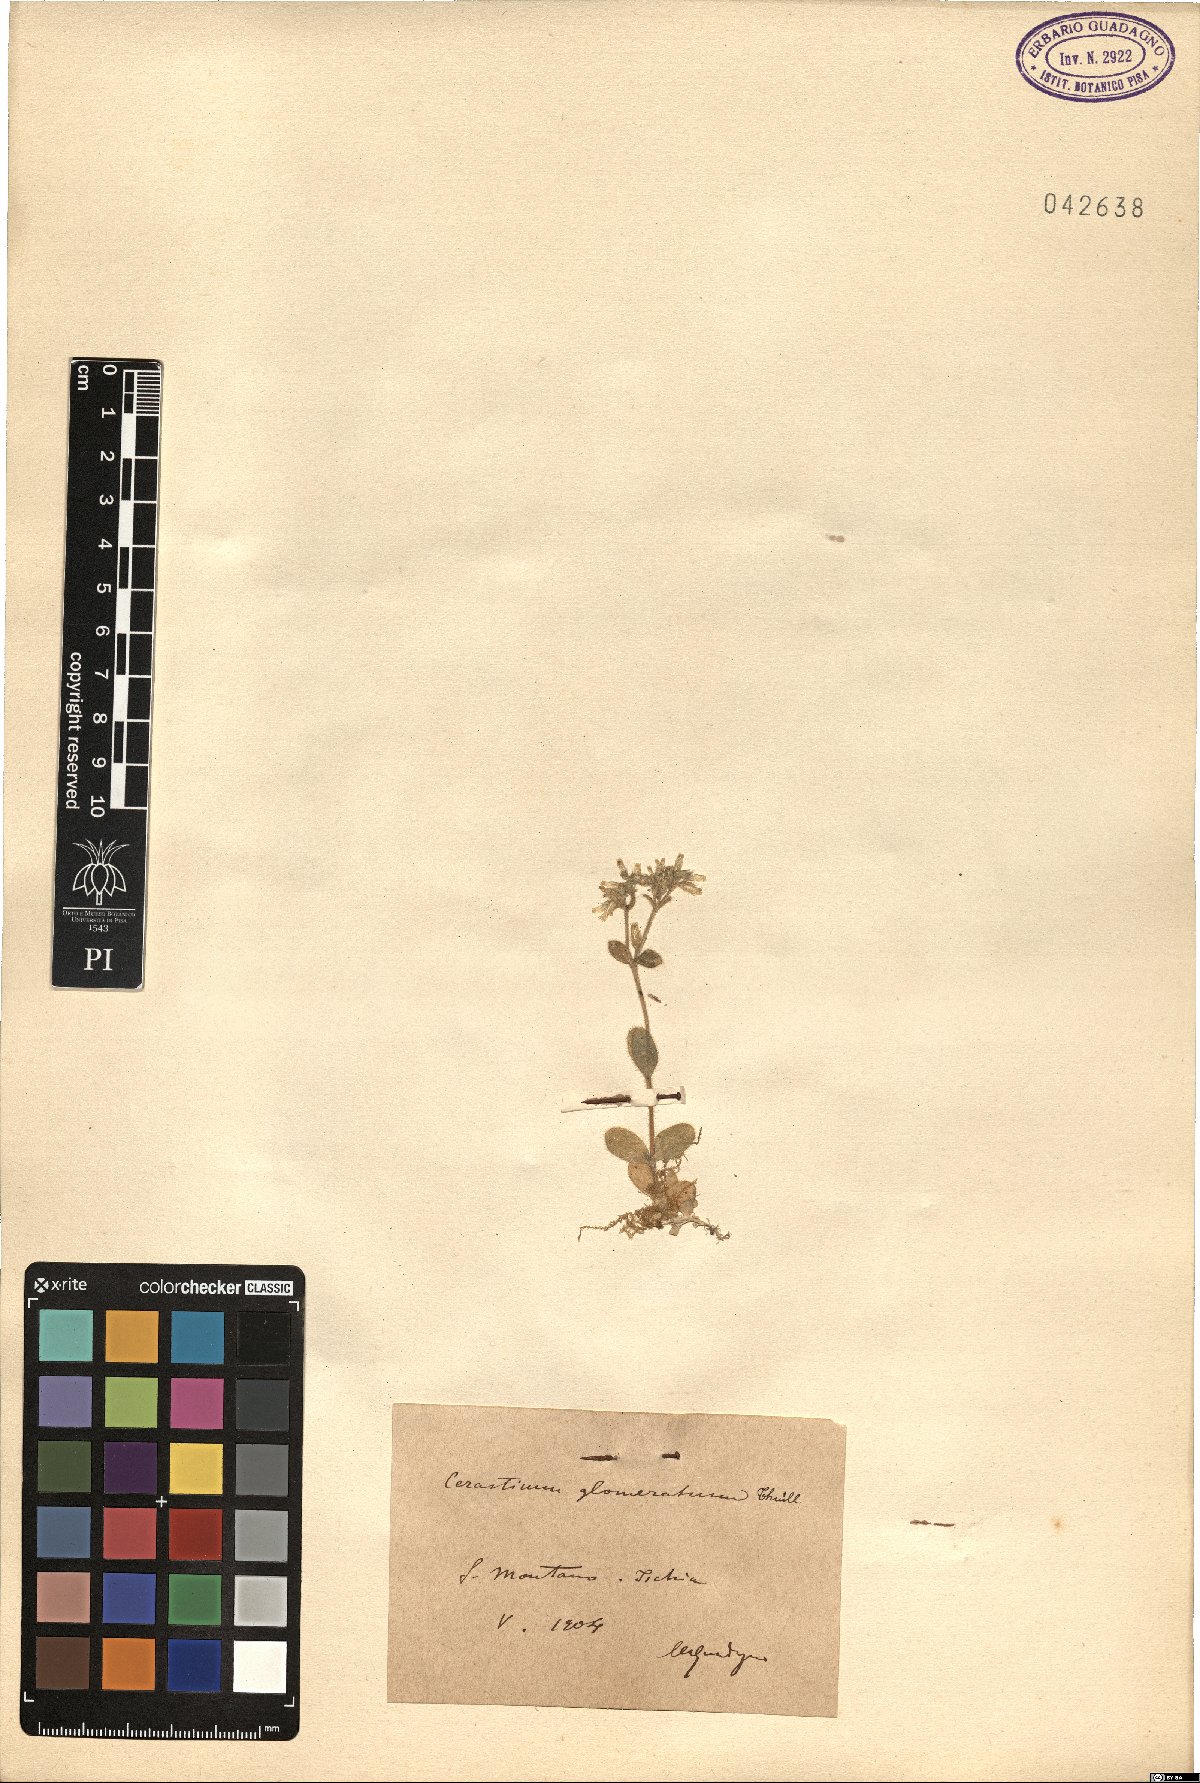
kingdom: Plantae
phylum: Tracheophyta
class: Magnoliopsida
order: Caryophyllales
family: Caryophyllaceae
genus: Cerastium
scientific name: Cerastium glomeratum
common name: Sticky chickweed
